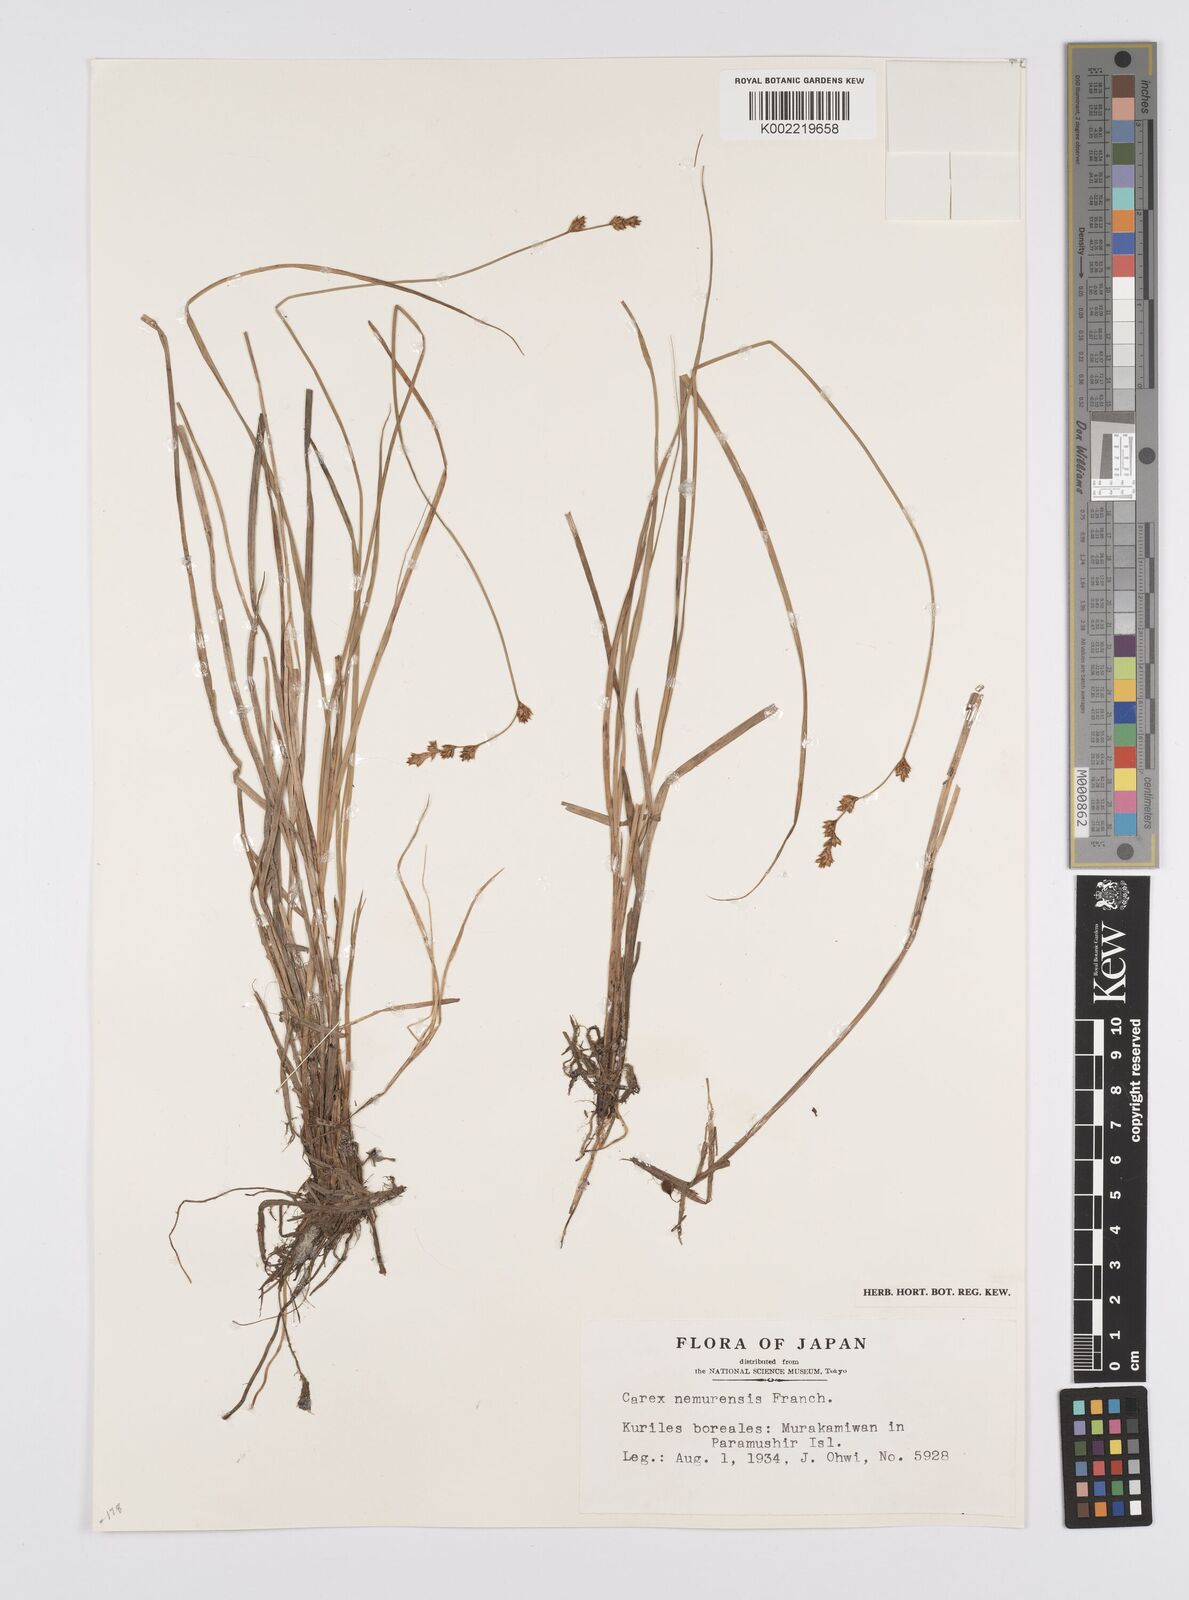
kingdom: Plantae
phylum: Tracheophyta
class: Liliopsida
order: Poales
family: Cyperaceae
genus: Carex
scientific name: Carex traiziscana
